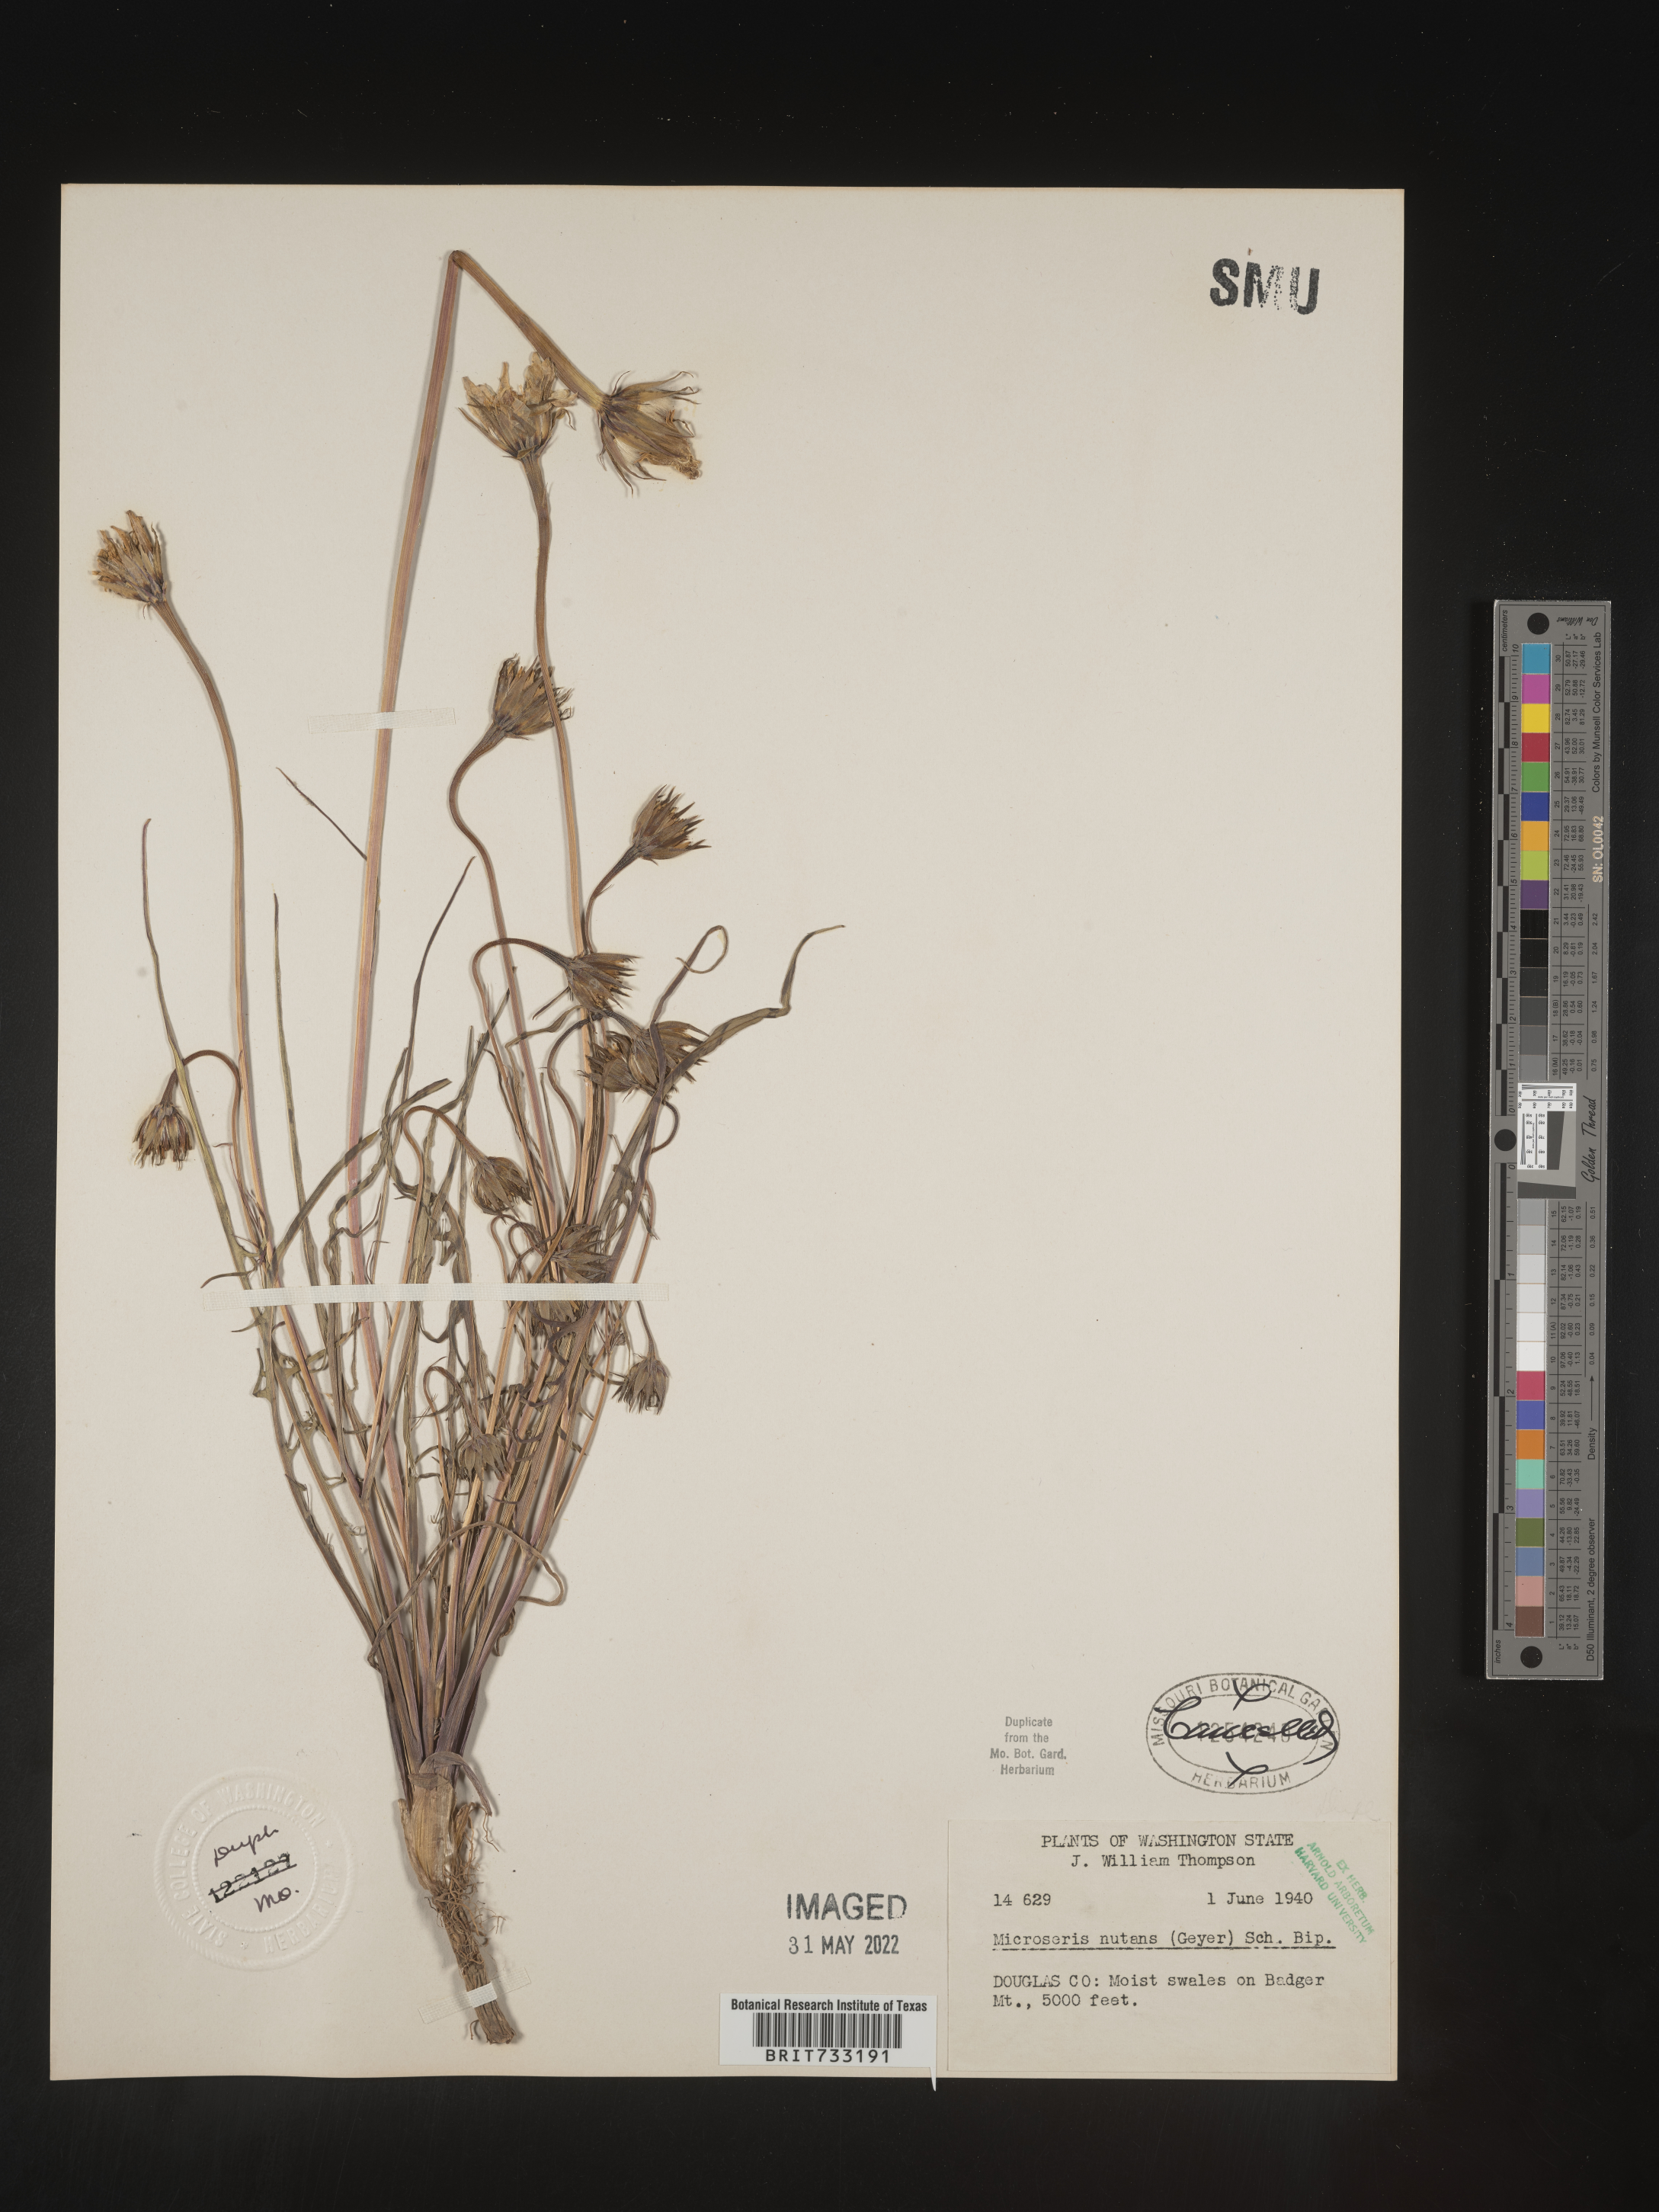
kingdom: Plantae
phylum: Tracheophyta
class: Magnoliopsida
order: Asterales
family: Asteraceae
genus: Microseris
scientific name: Microseris nutans
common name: Nodding microseris
